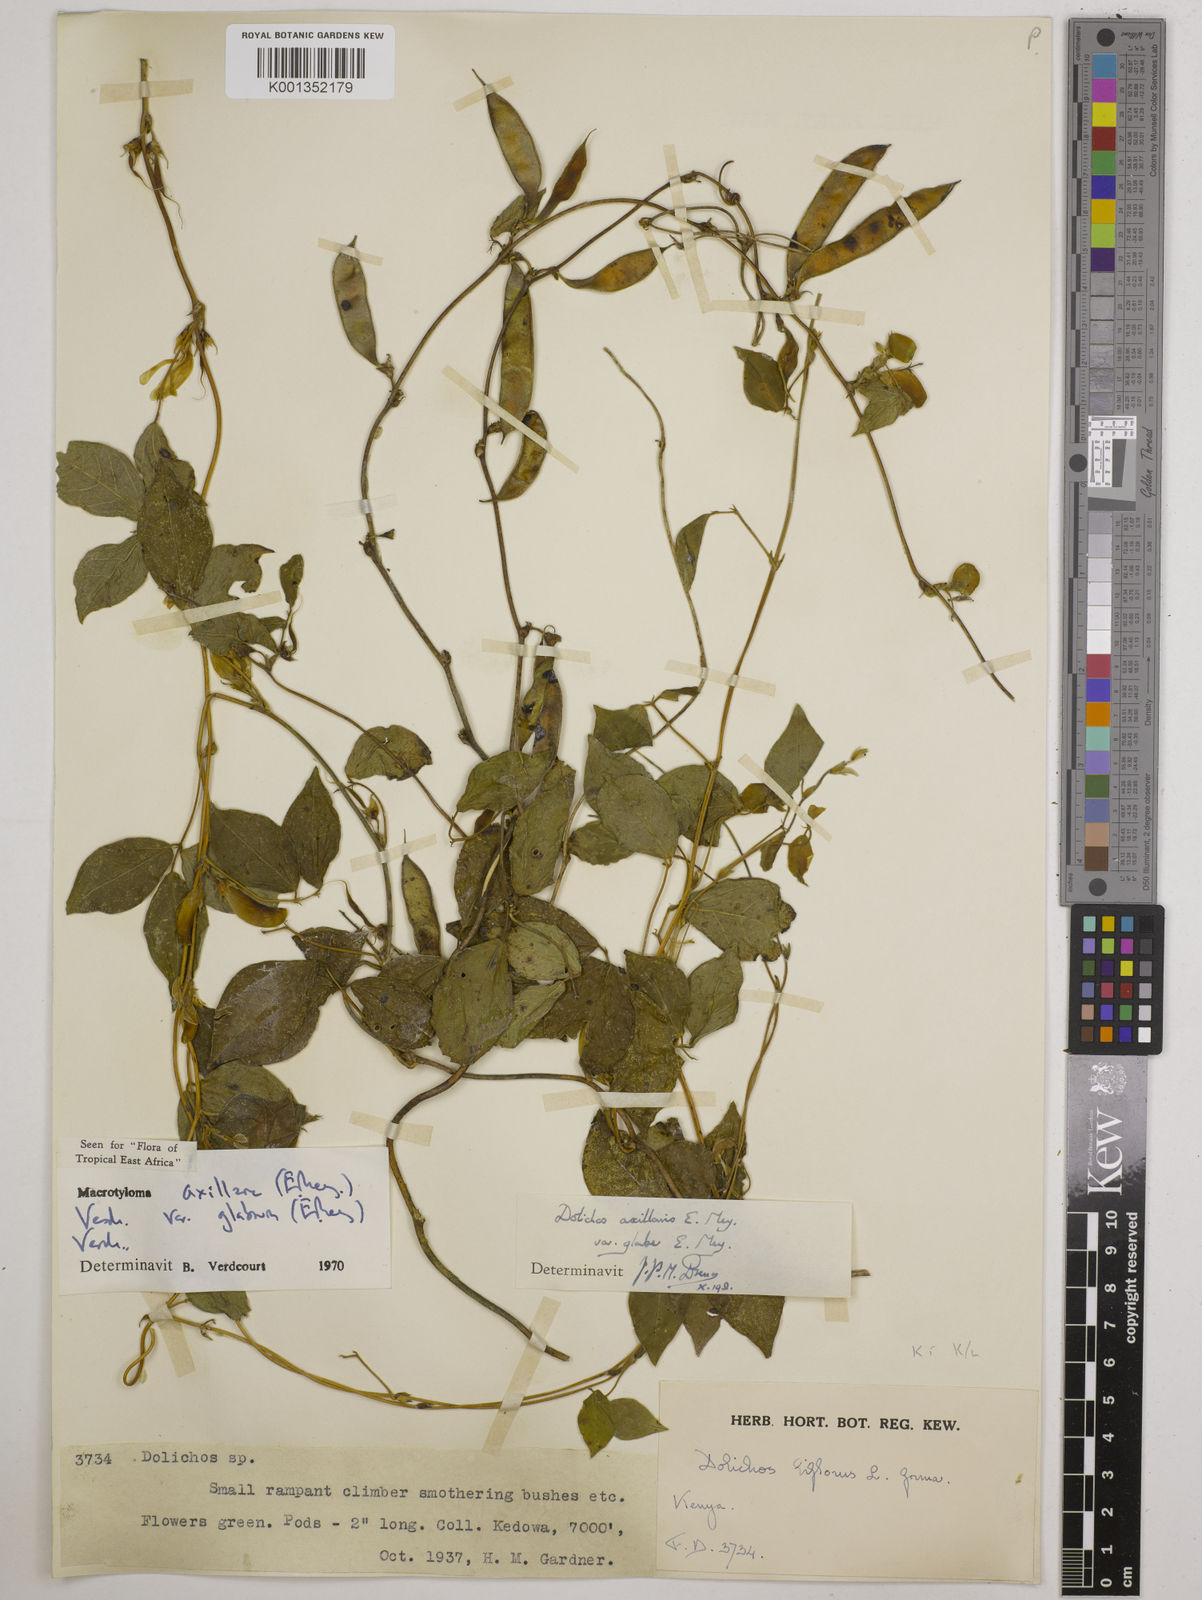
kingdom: Plantae
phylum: Tracheophyta
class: Magnoliopsida
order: Fabales
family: Fabaceae
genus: Macrotyloma
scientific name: Macrotyloma
